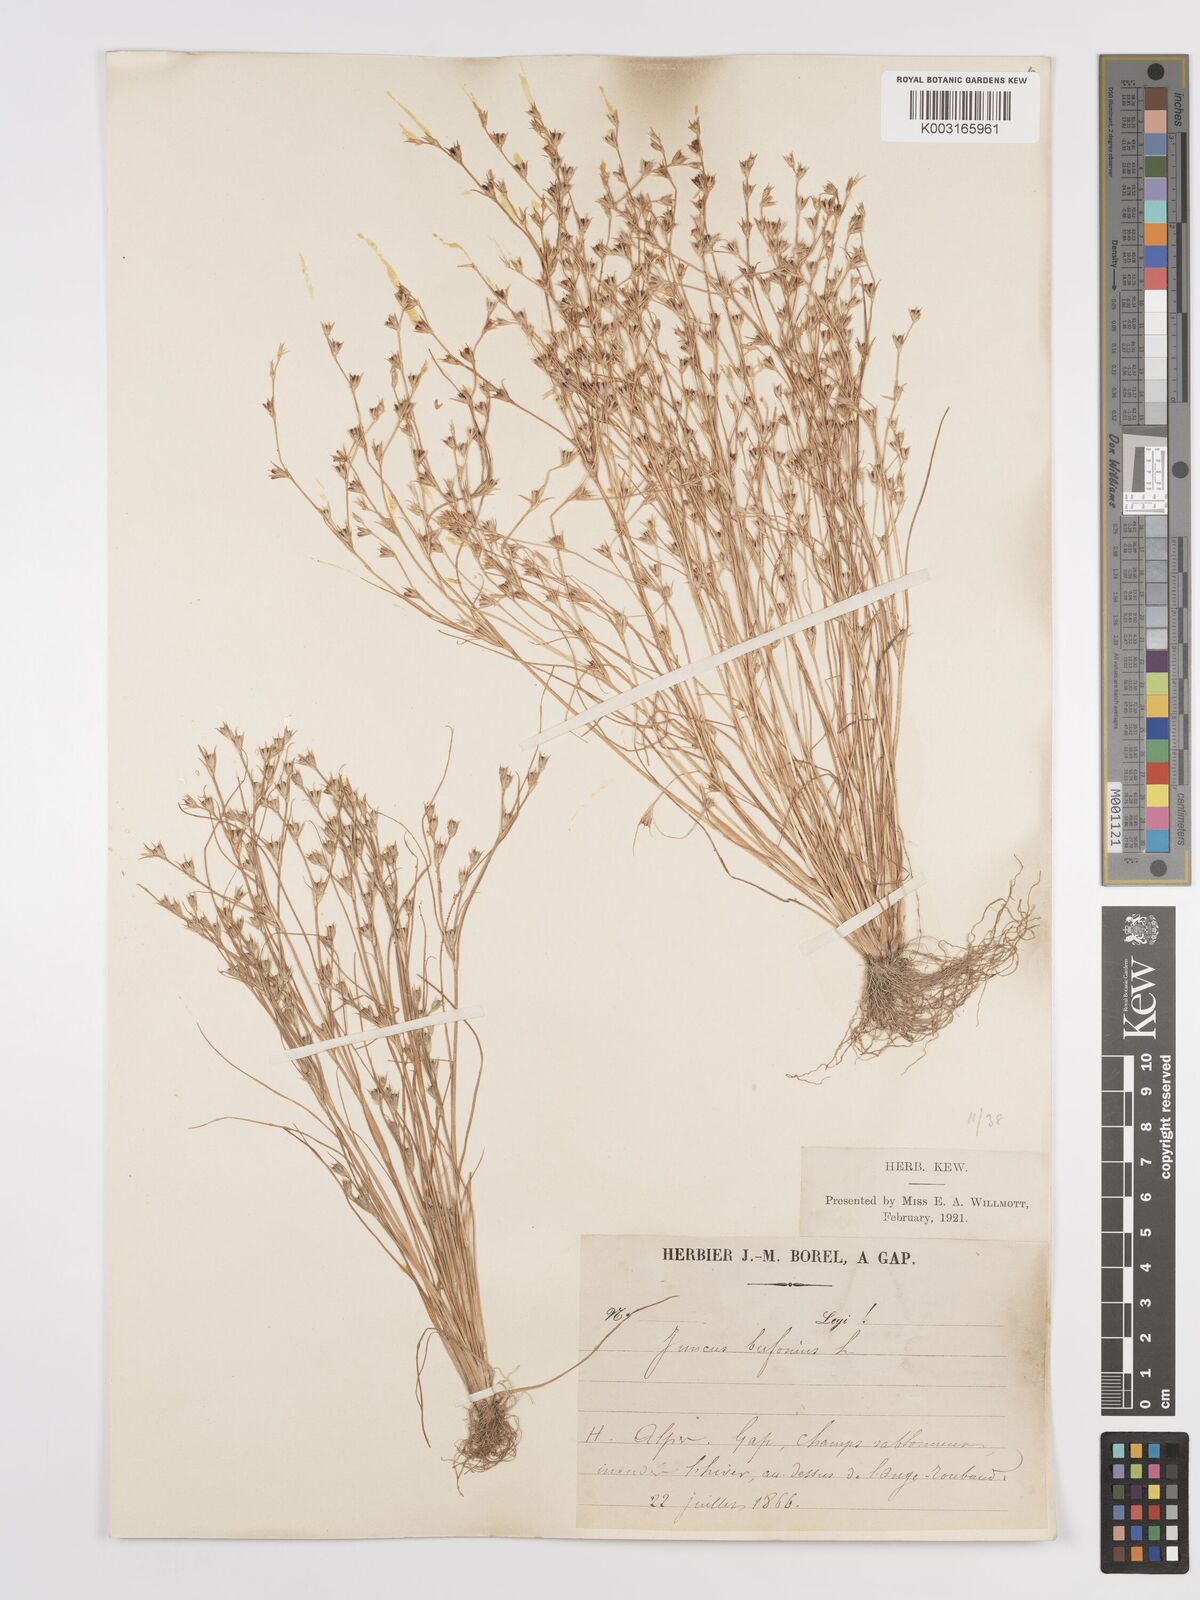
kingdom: Plantae
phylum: Tracheophyta
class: Liliopsida
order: Poales
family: Juncaceae
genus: Juncus
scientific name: Juncus bufonius
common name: Toad rush
